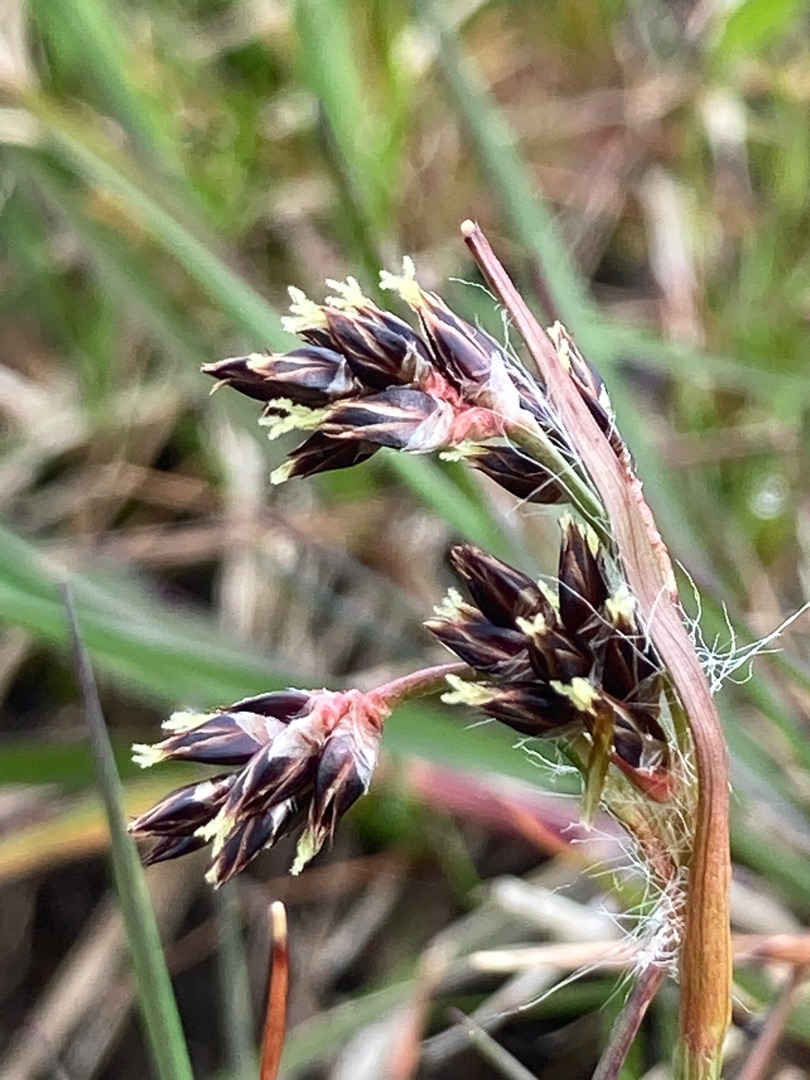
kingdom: Plantae
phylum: Tracheophyta
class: Liliopsida
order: Poales
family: Juncaceae
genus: Luzula
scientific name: Luzula campestris
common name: Mark-frytle
